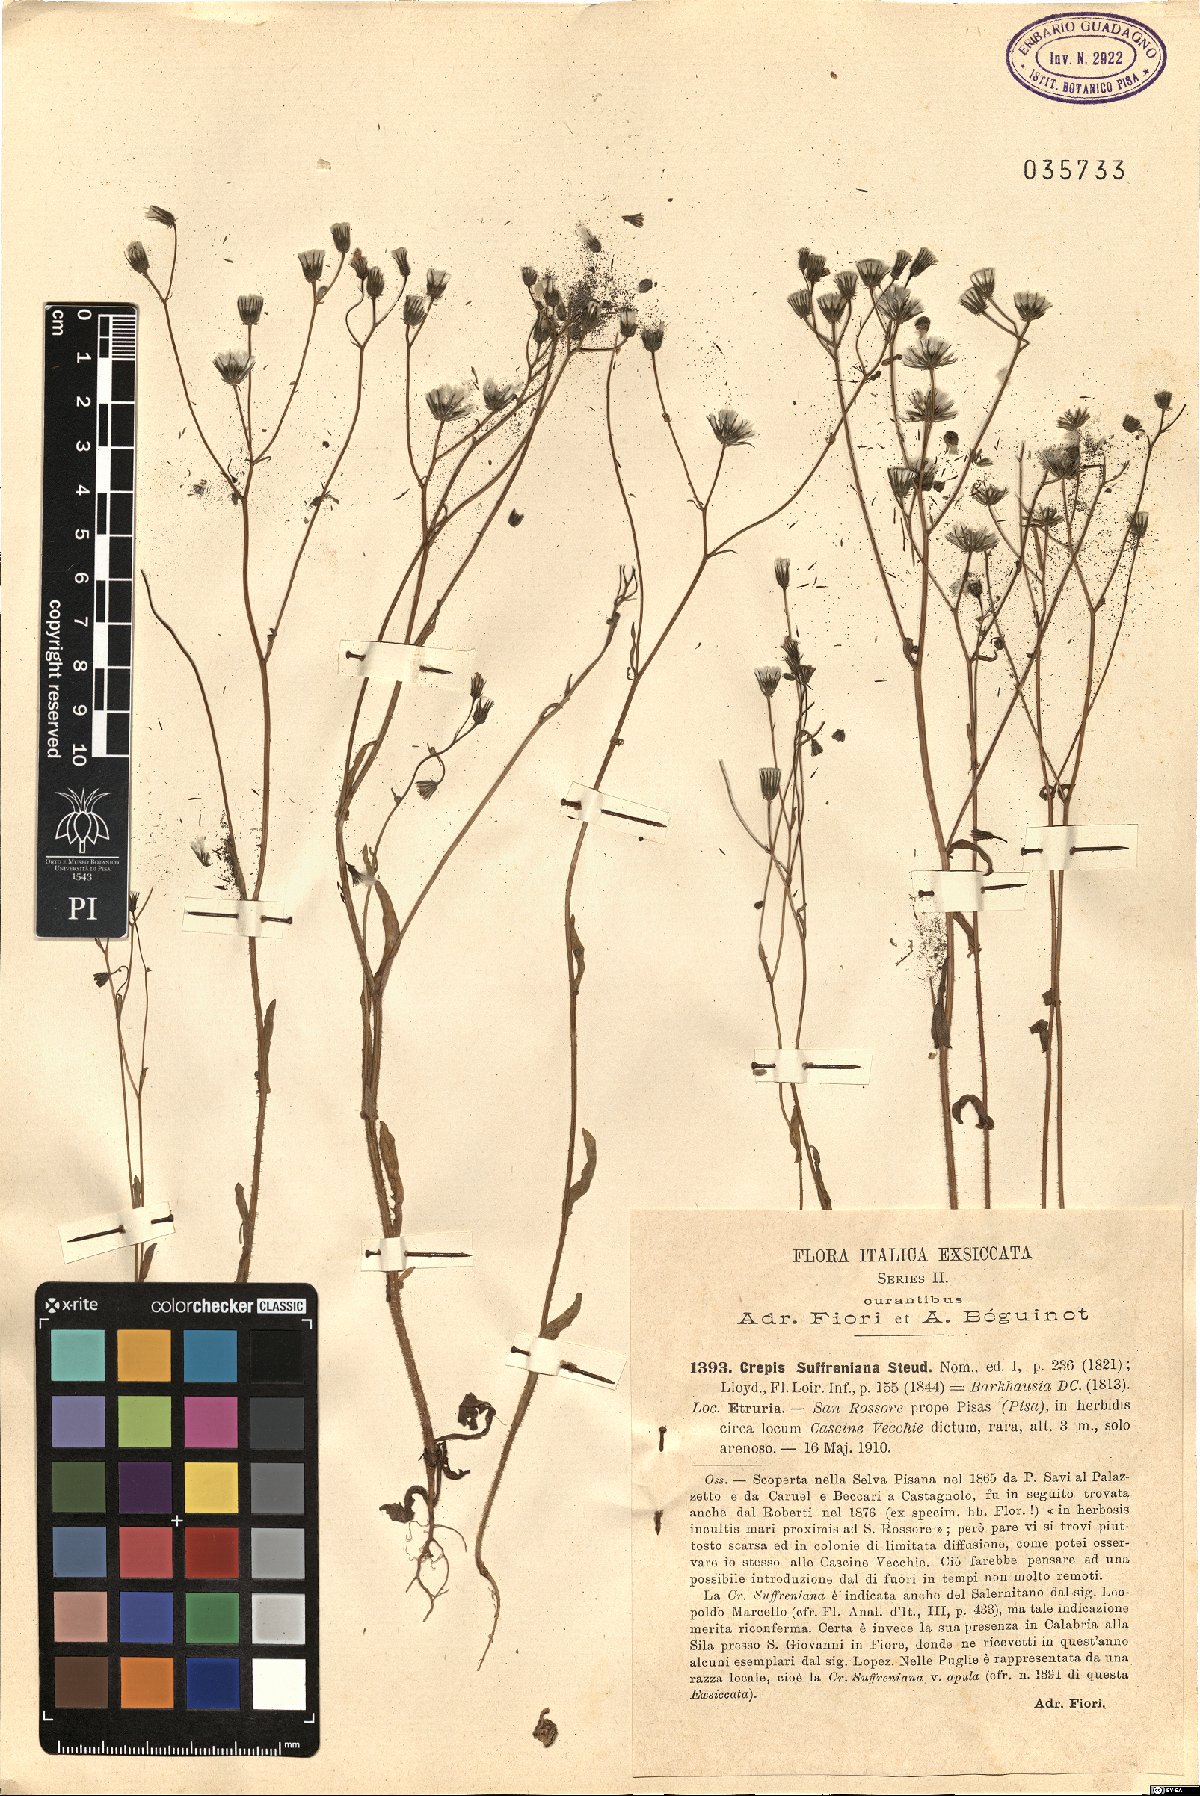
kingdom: Plantae
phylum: Tracheophyta
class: Magnoliopsida
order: Asterales
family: Asteraceae
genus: Crepis
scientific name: Crepis suffreniana
